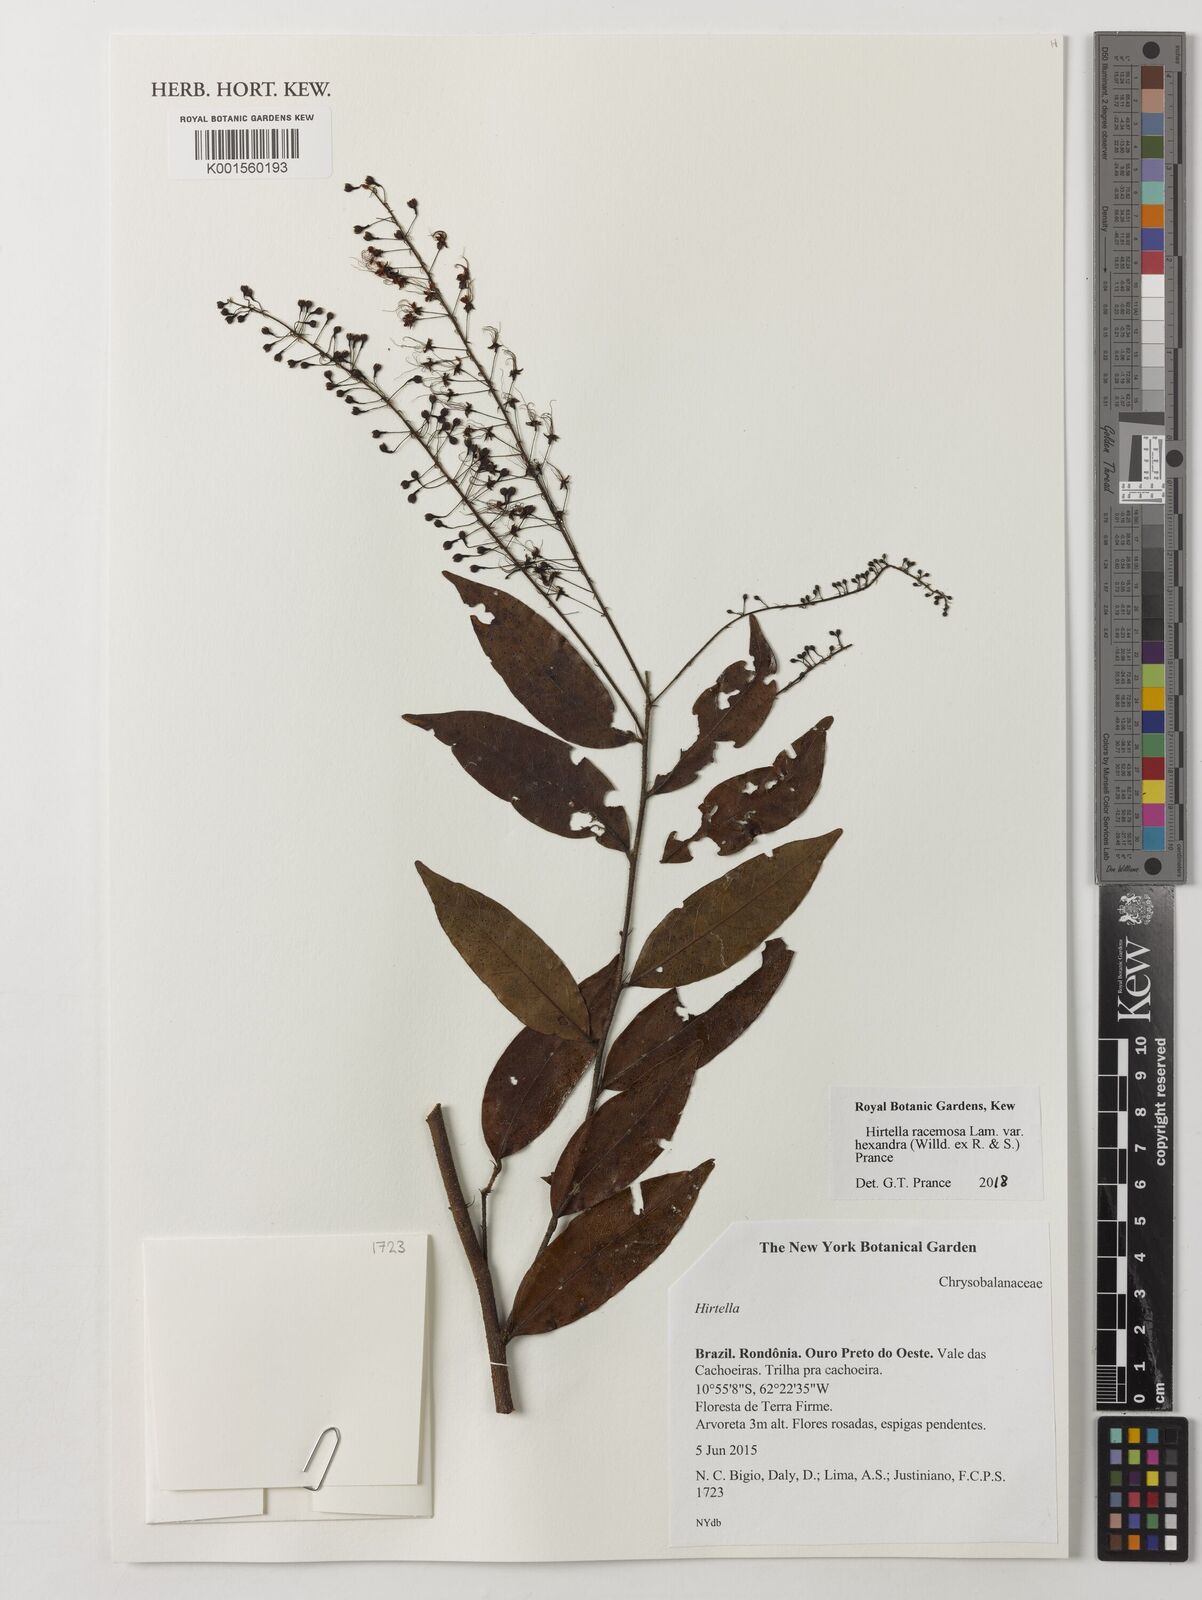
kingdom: Plantae
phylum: Tracheophyta
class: Magnoliopsida
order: Malpighiales
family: Chrysobalanaceae
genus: Hirtella
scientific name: Hirtella racemosa
